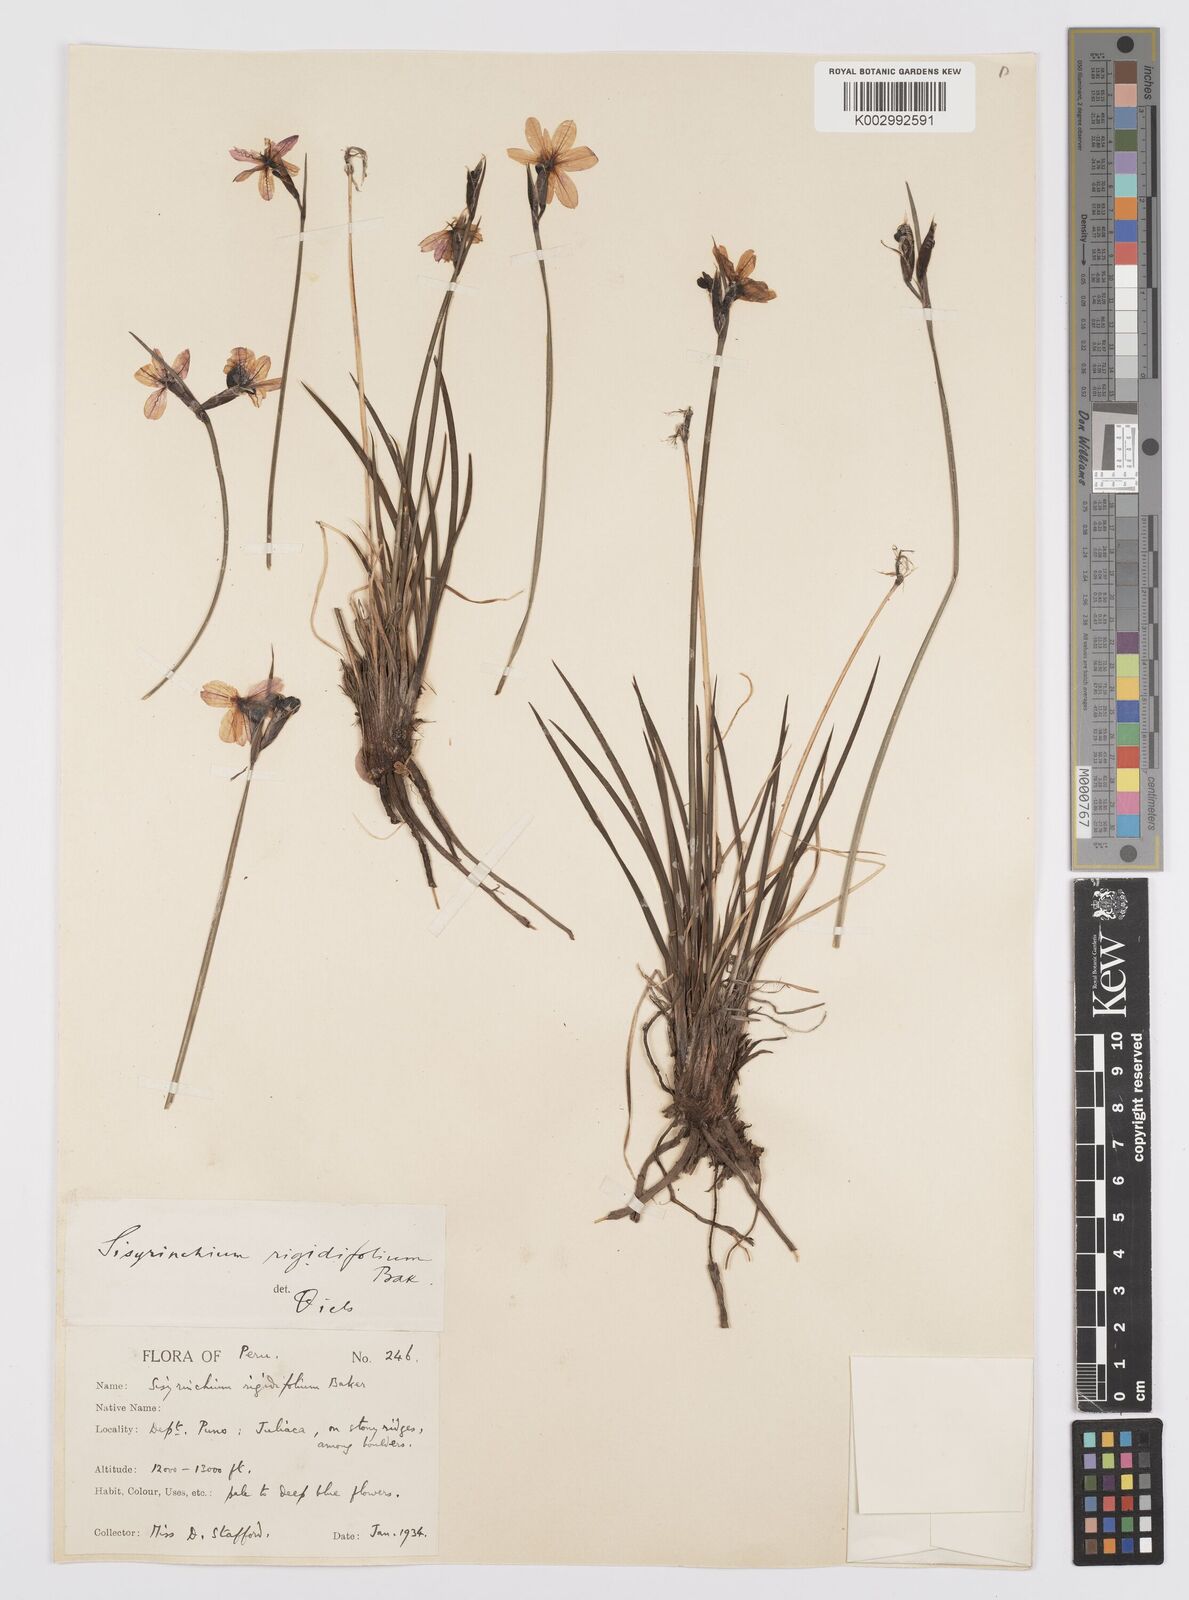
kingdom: Plantae
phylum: Tracheophyta
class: Liliopsida
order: Asparagales
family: Iridaceae
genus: Sisyrinchium
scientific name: Sisyrinchium rigidifolium
